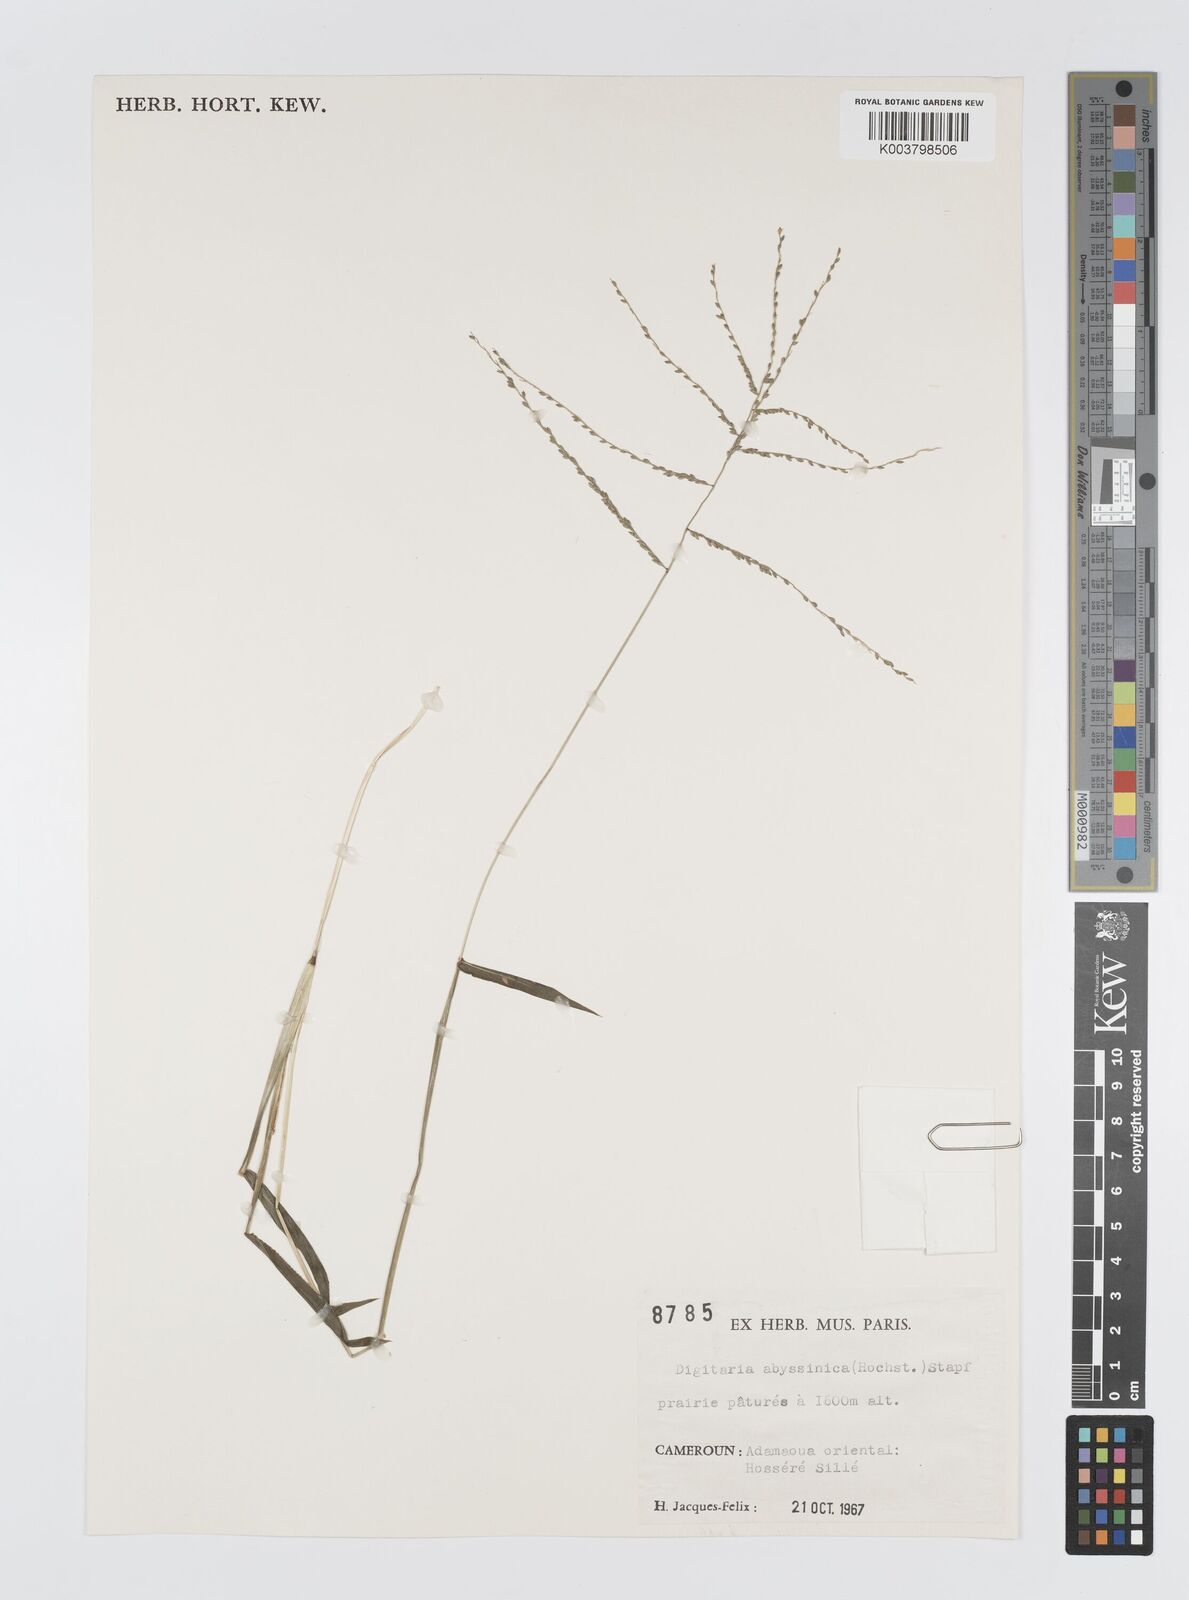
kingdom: Plantae
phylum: Tracheophyta
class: Liliopsida
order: Poales
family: Poaceae
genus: Digitaria
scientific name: Digitaria abyssinica
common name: African couchgrass
